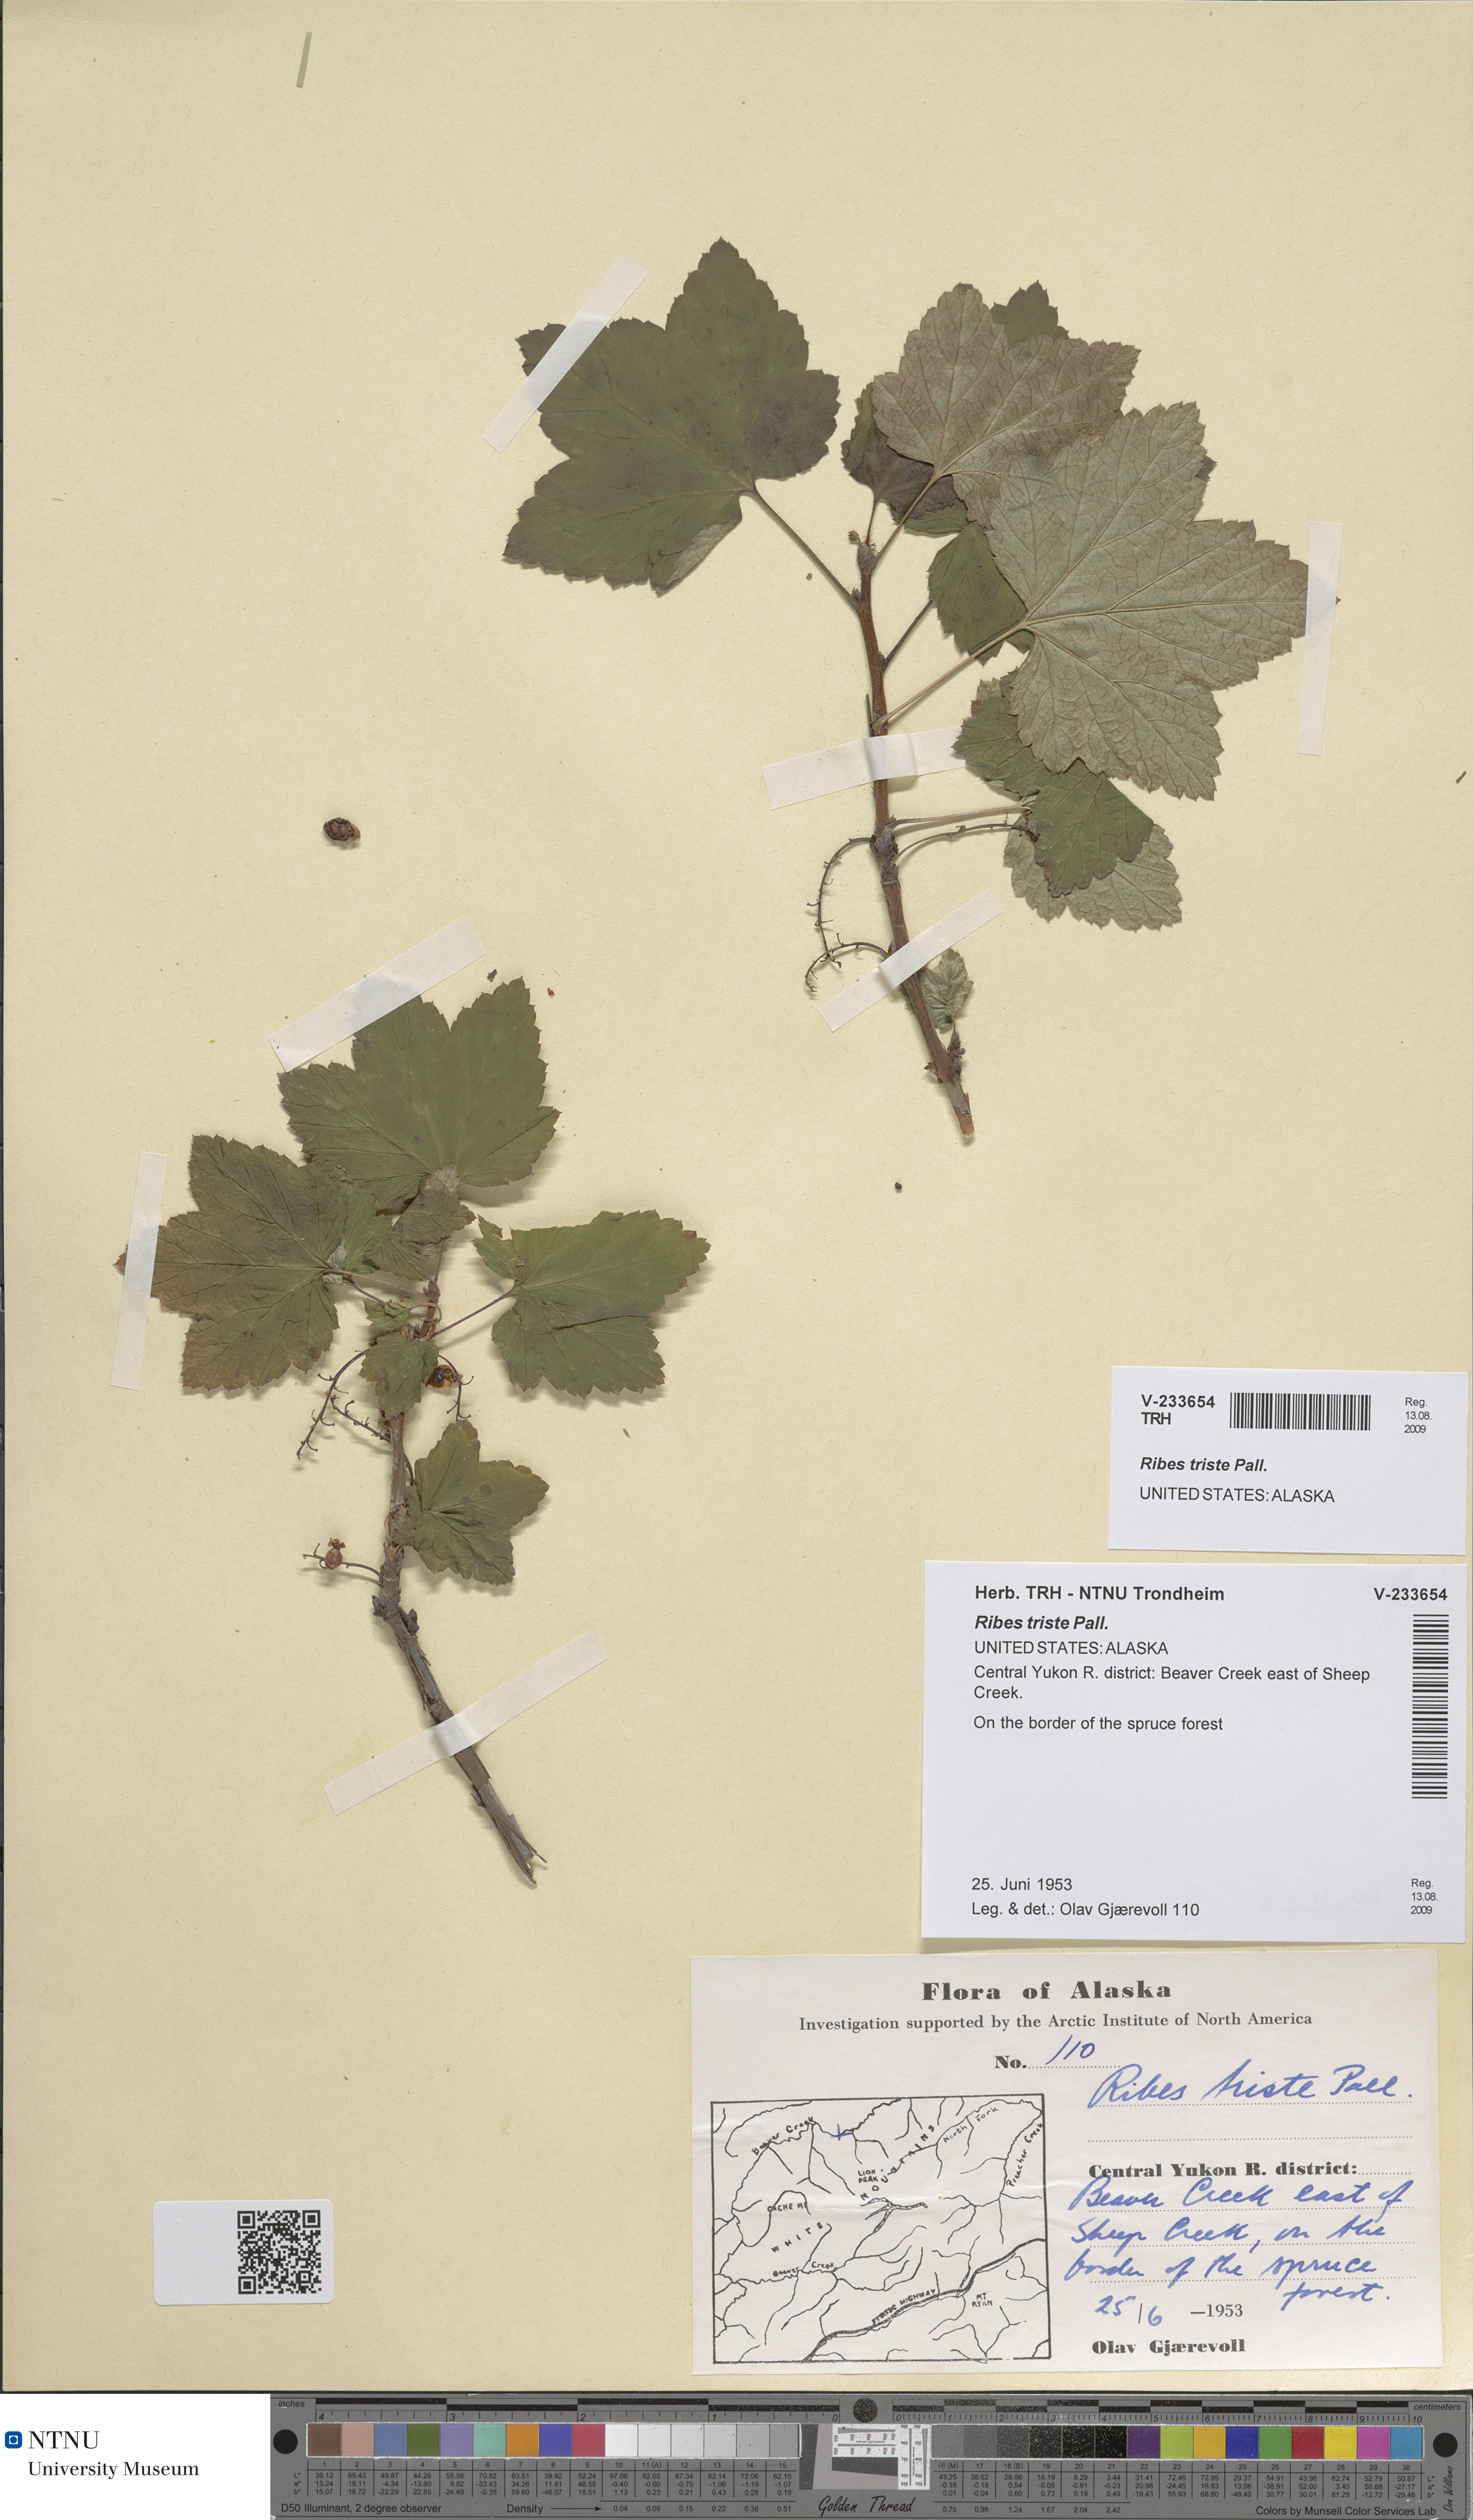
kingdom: Plantae
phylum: Tracheophyta
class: Magnoliopsida
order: Saxifragales
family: Grossulariaceae
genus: Ribes
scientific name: Ribes triste
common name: Swamp red currant
